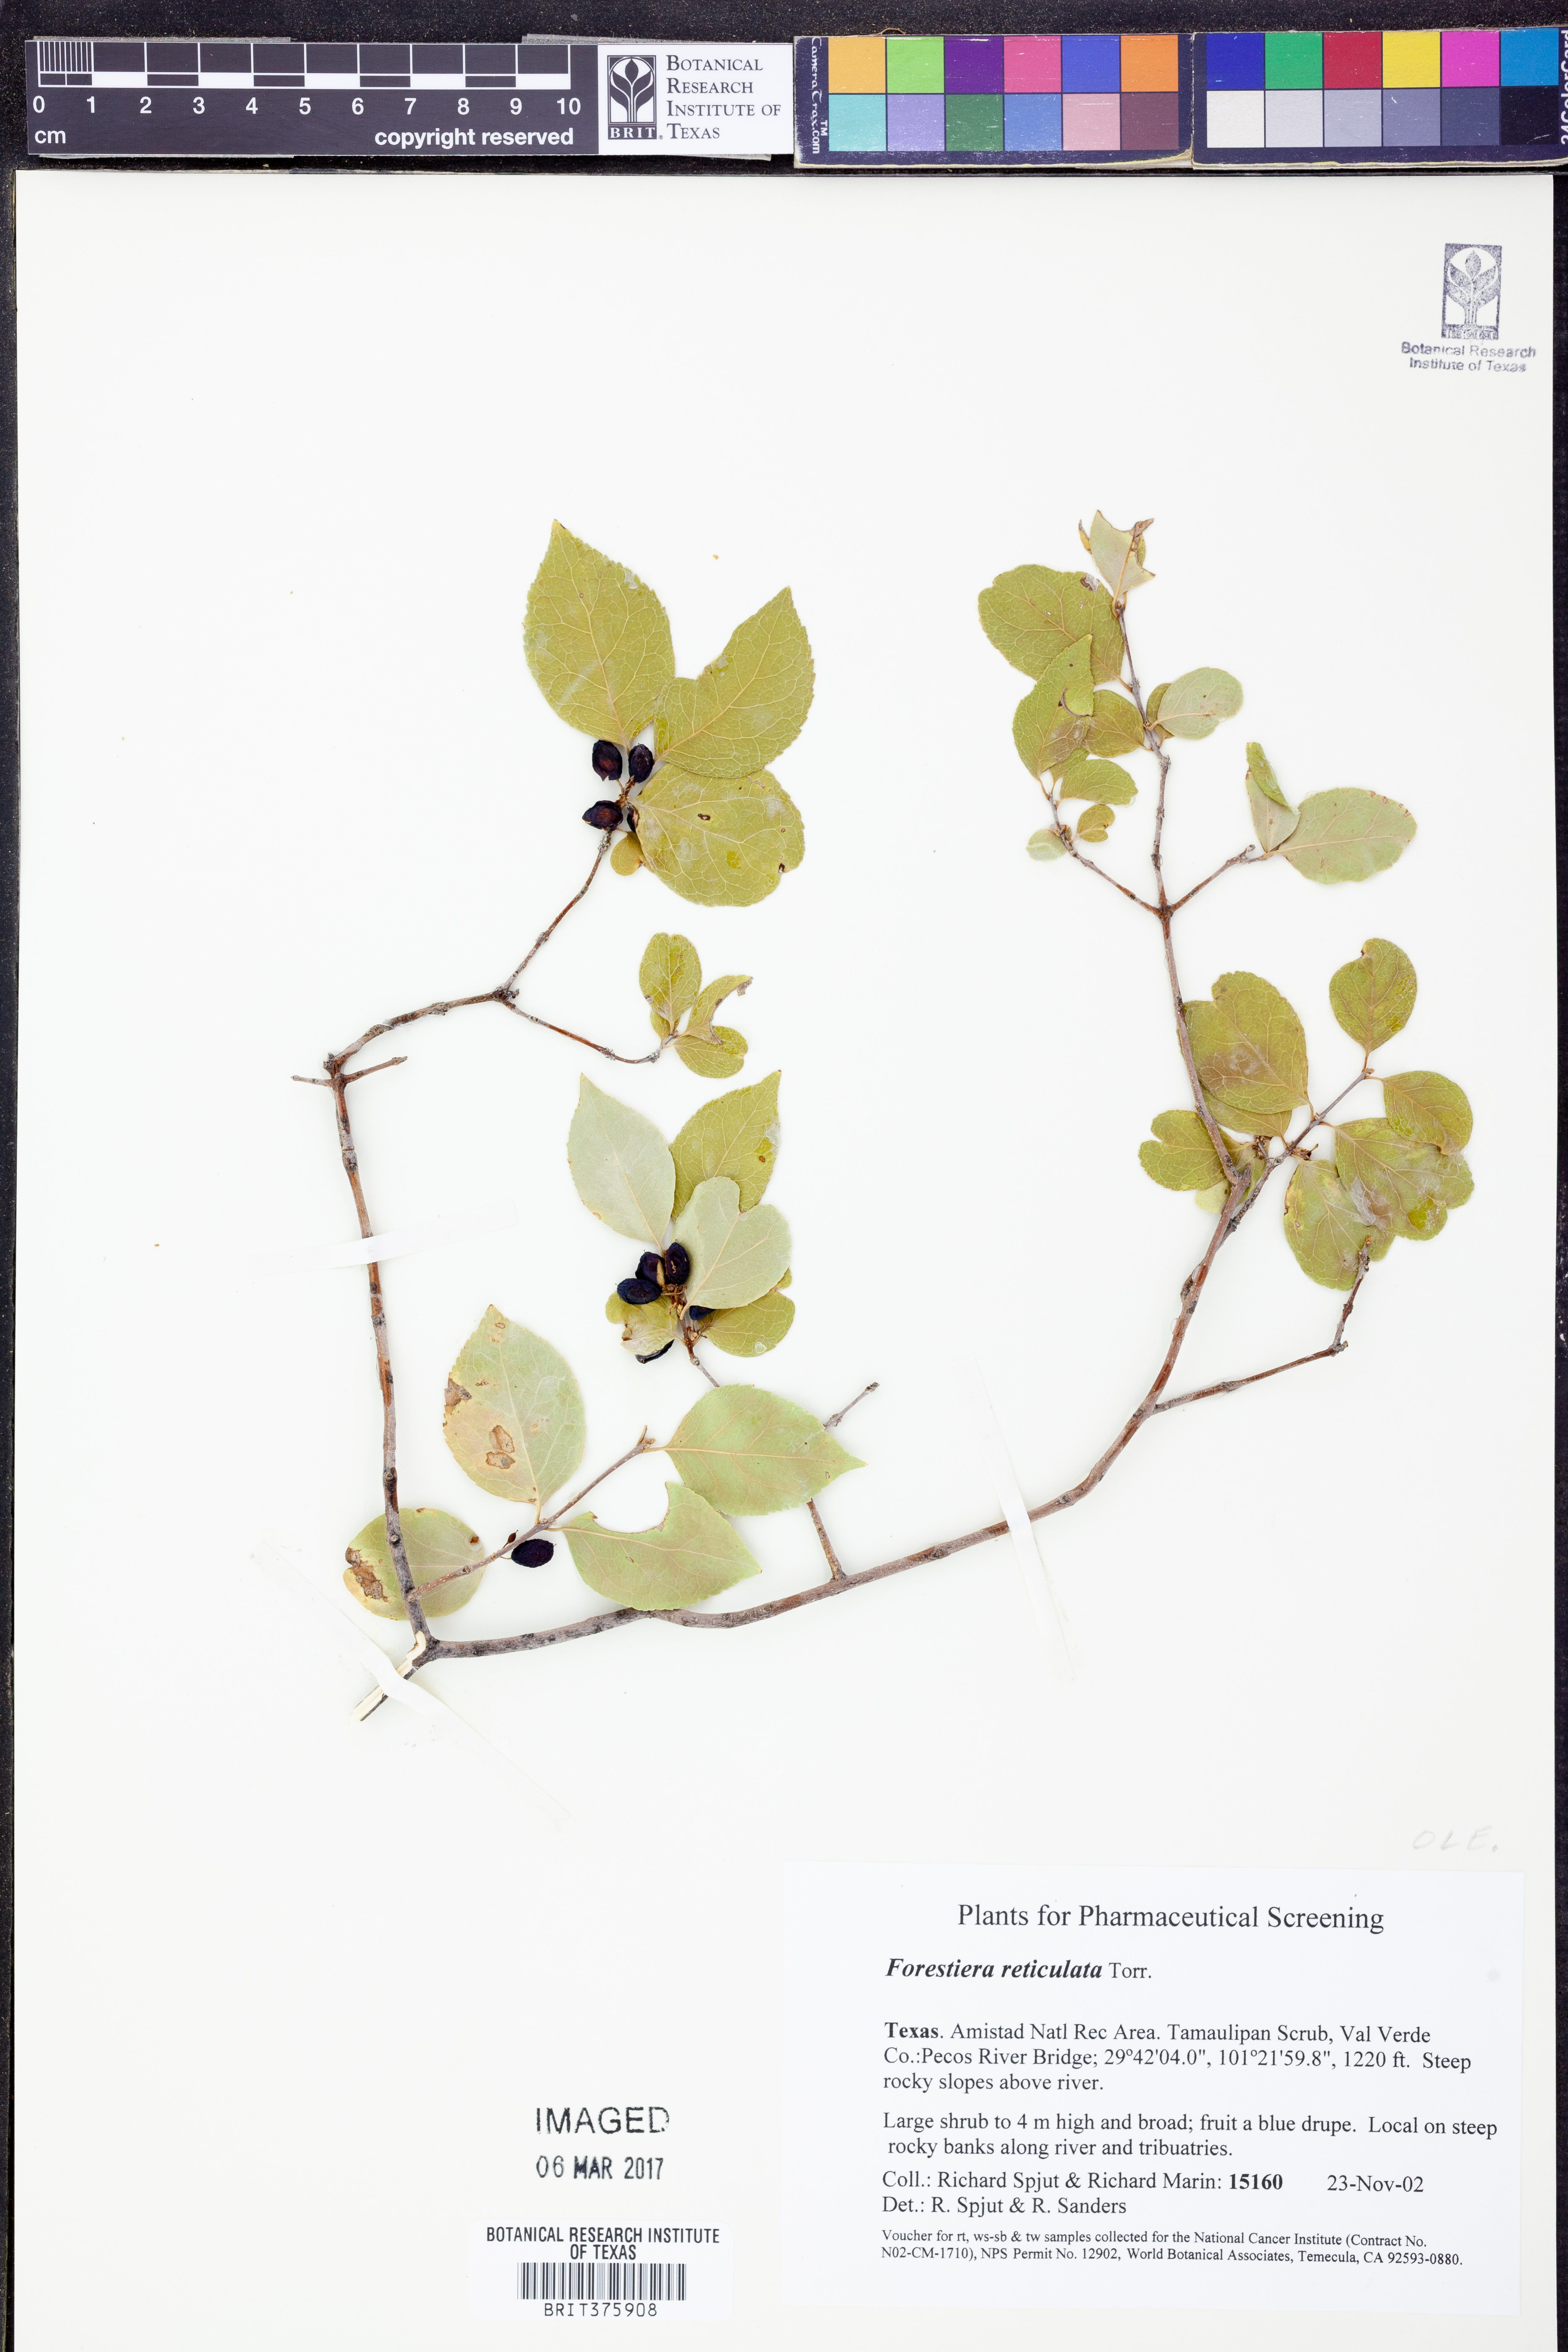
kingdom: Plantae
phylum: Tracheophyta
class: Magnoliopsida
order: Lamiales
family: Oleaceae
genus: Forestiera
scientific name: Forestiera reticulata
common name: Netleaf swamp-privet
